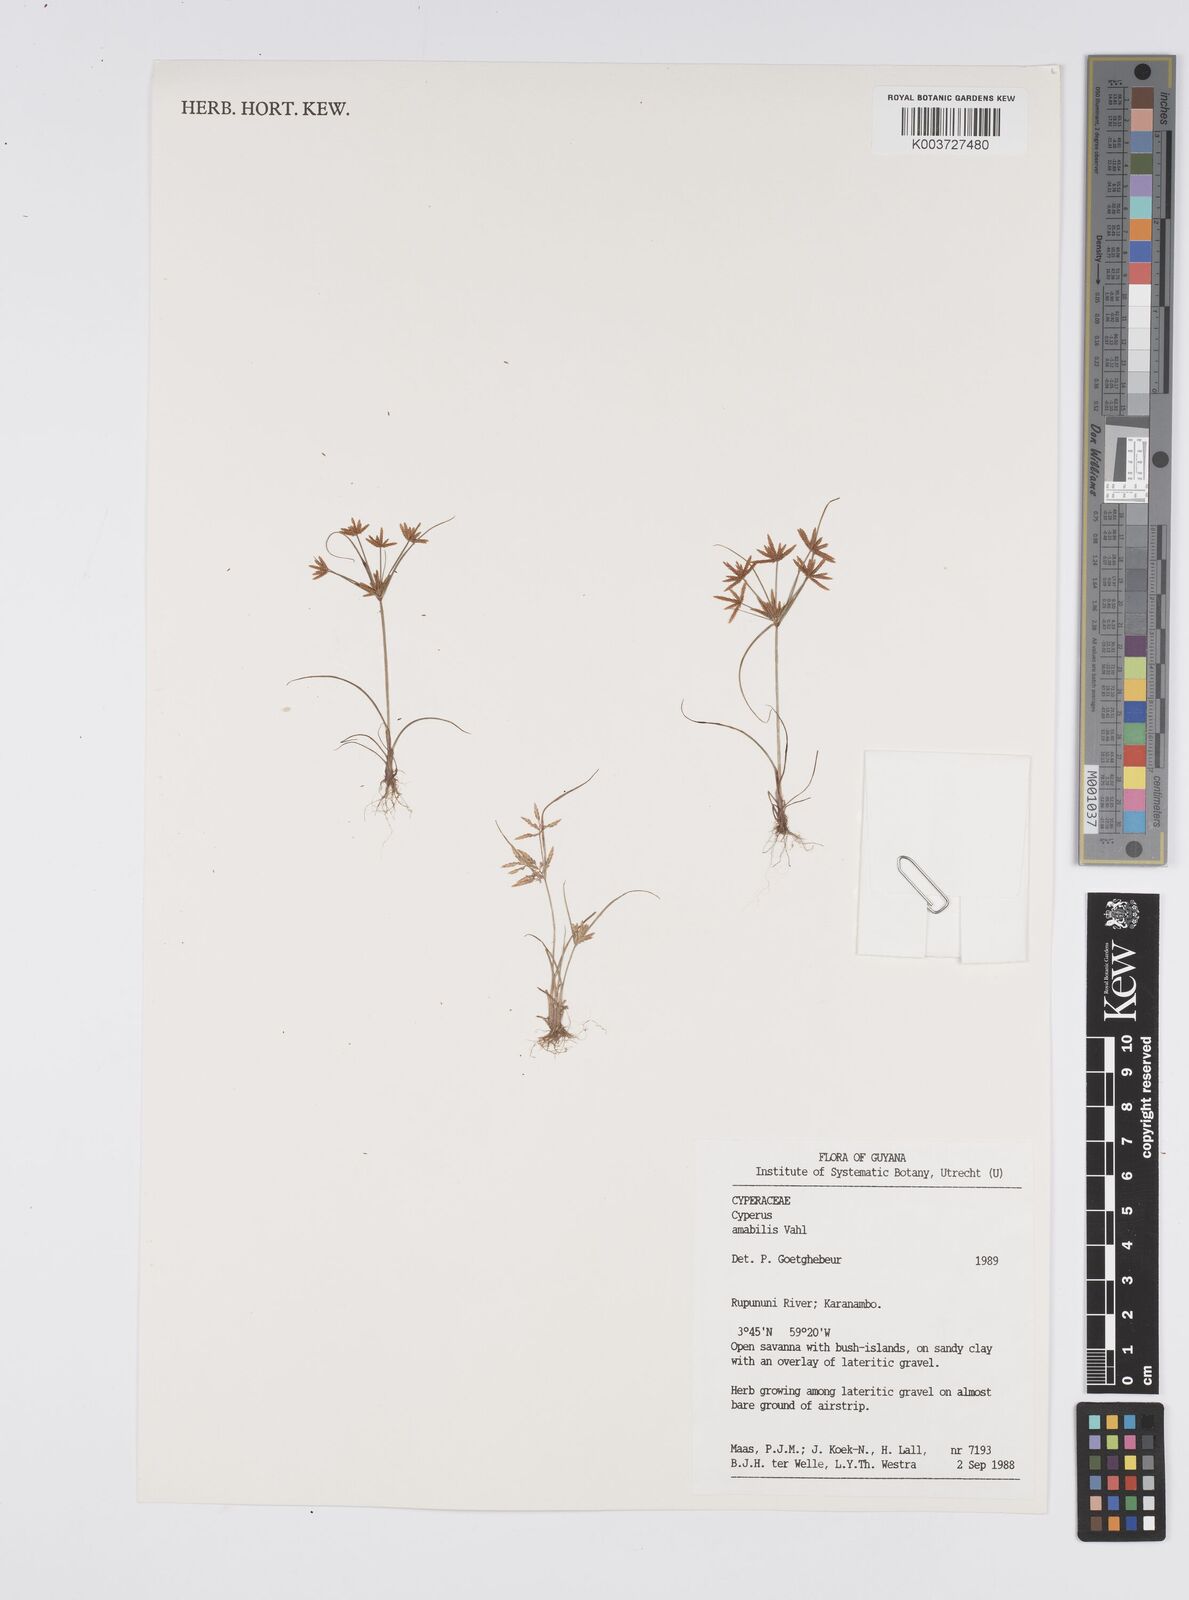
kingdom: Plantae
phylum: Tracheophyta
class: Liliopsida
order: Poales
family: Cyperaceae
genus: Cyperus
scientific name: Cyperus crassipes
